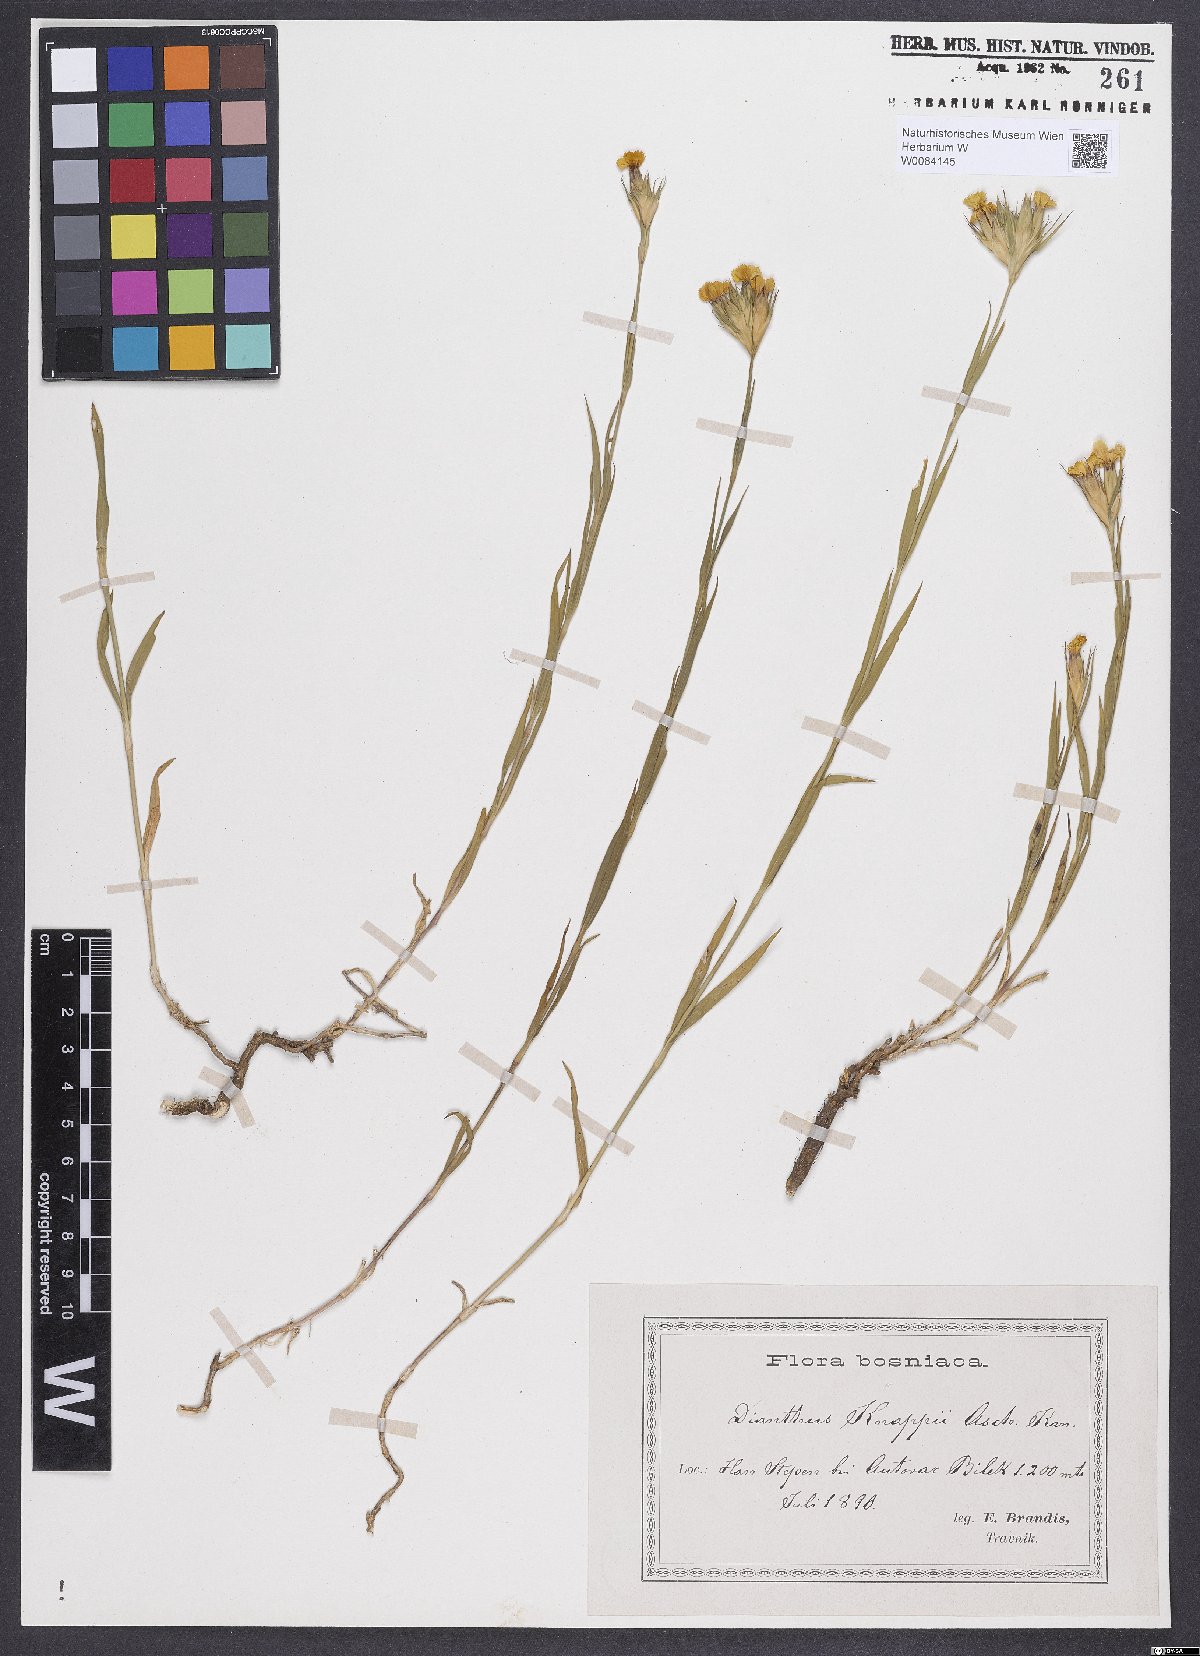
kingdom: Plantae
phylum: Tracheophyta
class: Magnoliopsida
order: Caryophyllales
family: Caryophyllaceae
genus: Dianthus
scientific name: Dianthus balbisii
